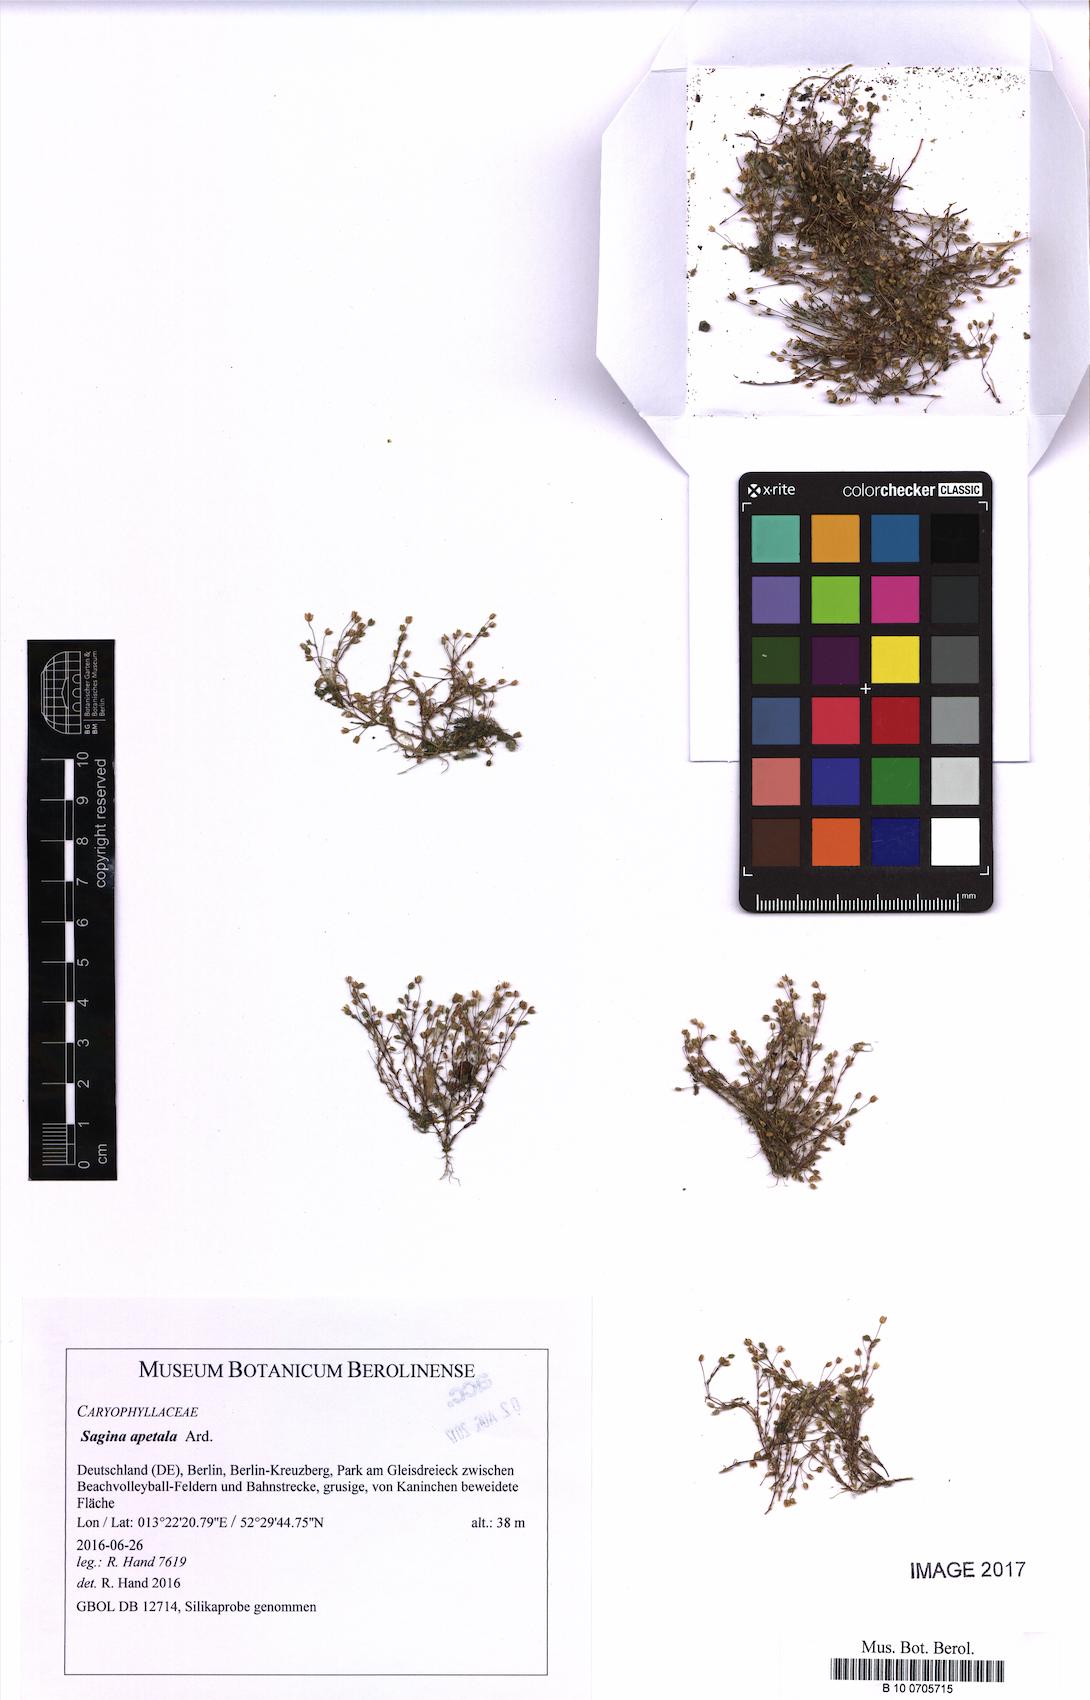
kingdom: Plantae
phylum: Tracheophyta
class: Magnoliopsida
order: Caryophyllales
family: Caryophyllaceae
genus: Sagina
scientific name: Sagina apetala
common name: Annual pearlwort
